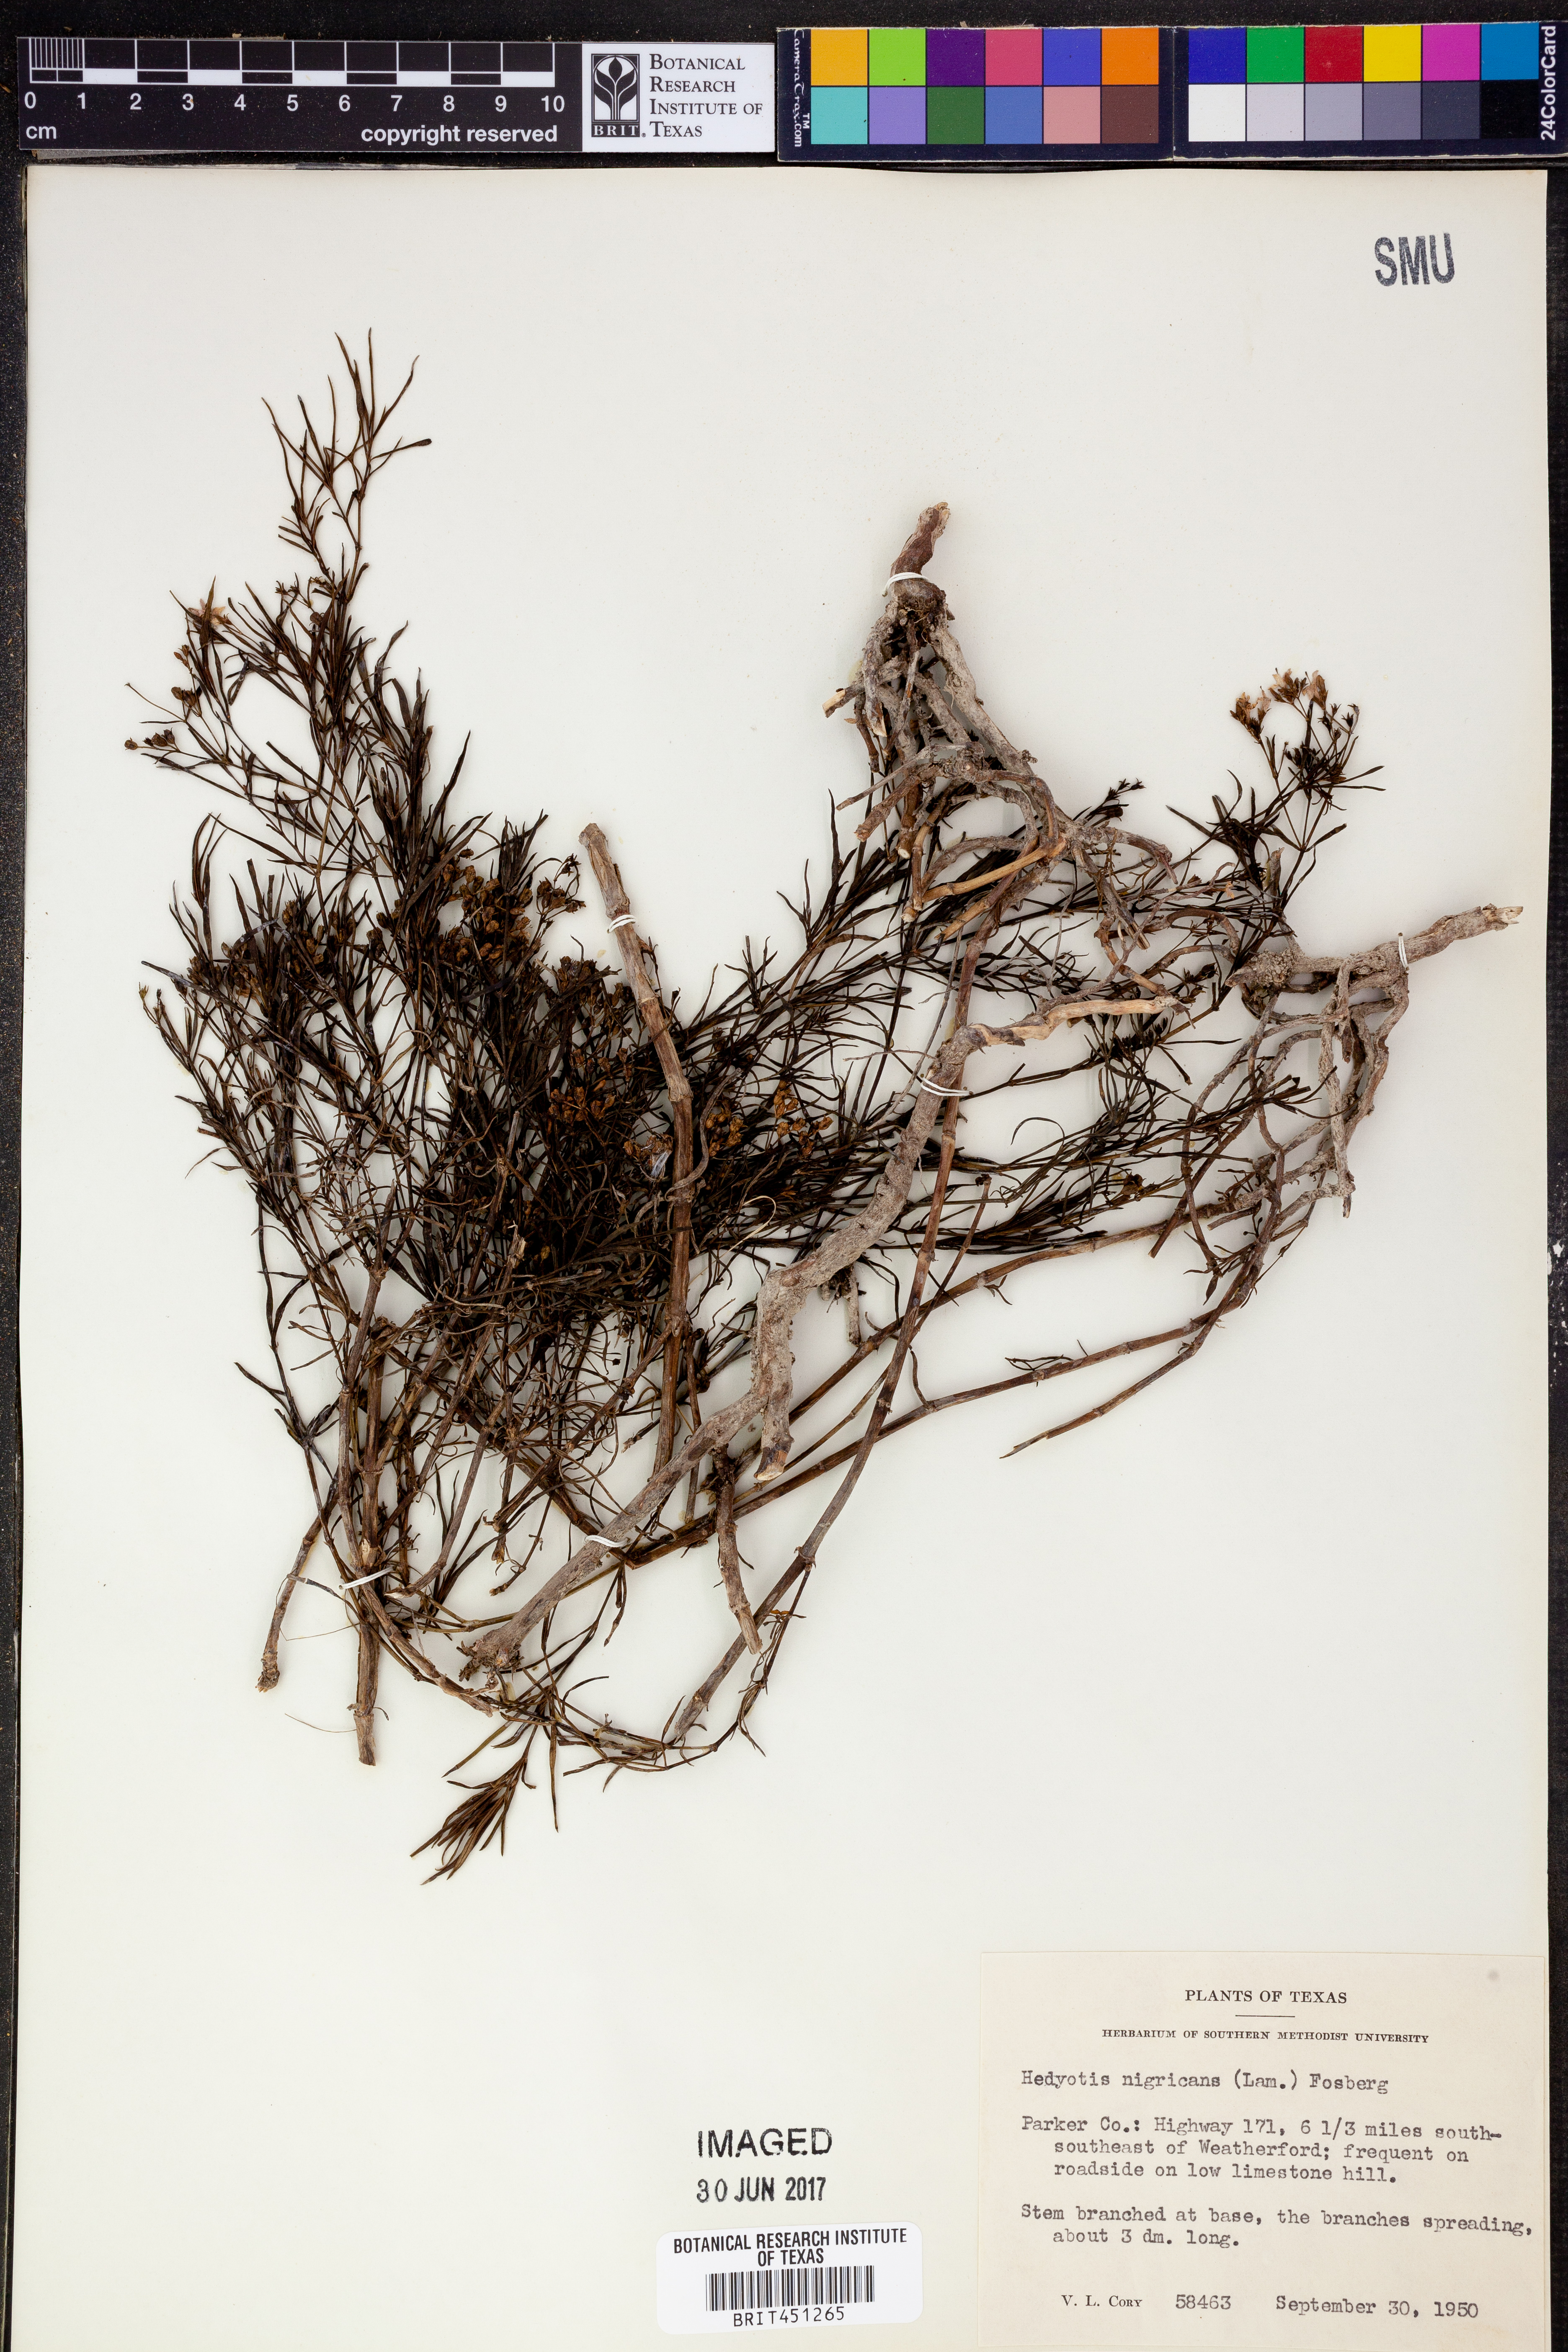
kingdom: Plantae
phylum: Tracheophyta
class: Magnoliopsida
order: Gentianales
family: Rubiaceae
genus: Stenaria
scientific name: Stenaria nigricans
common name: Diamondflowers
